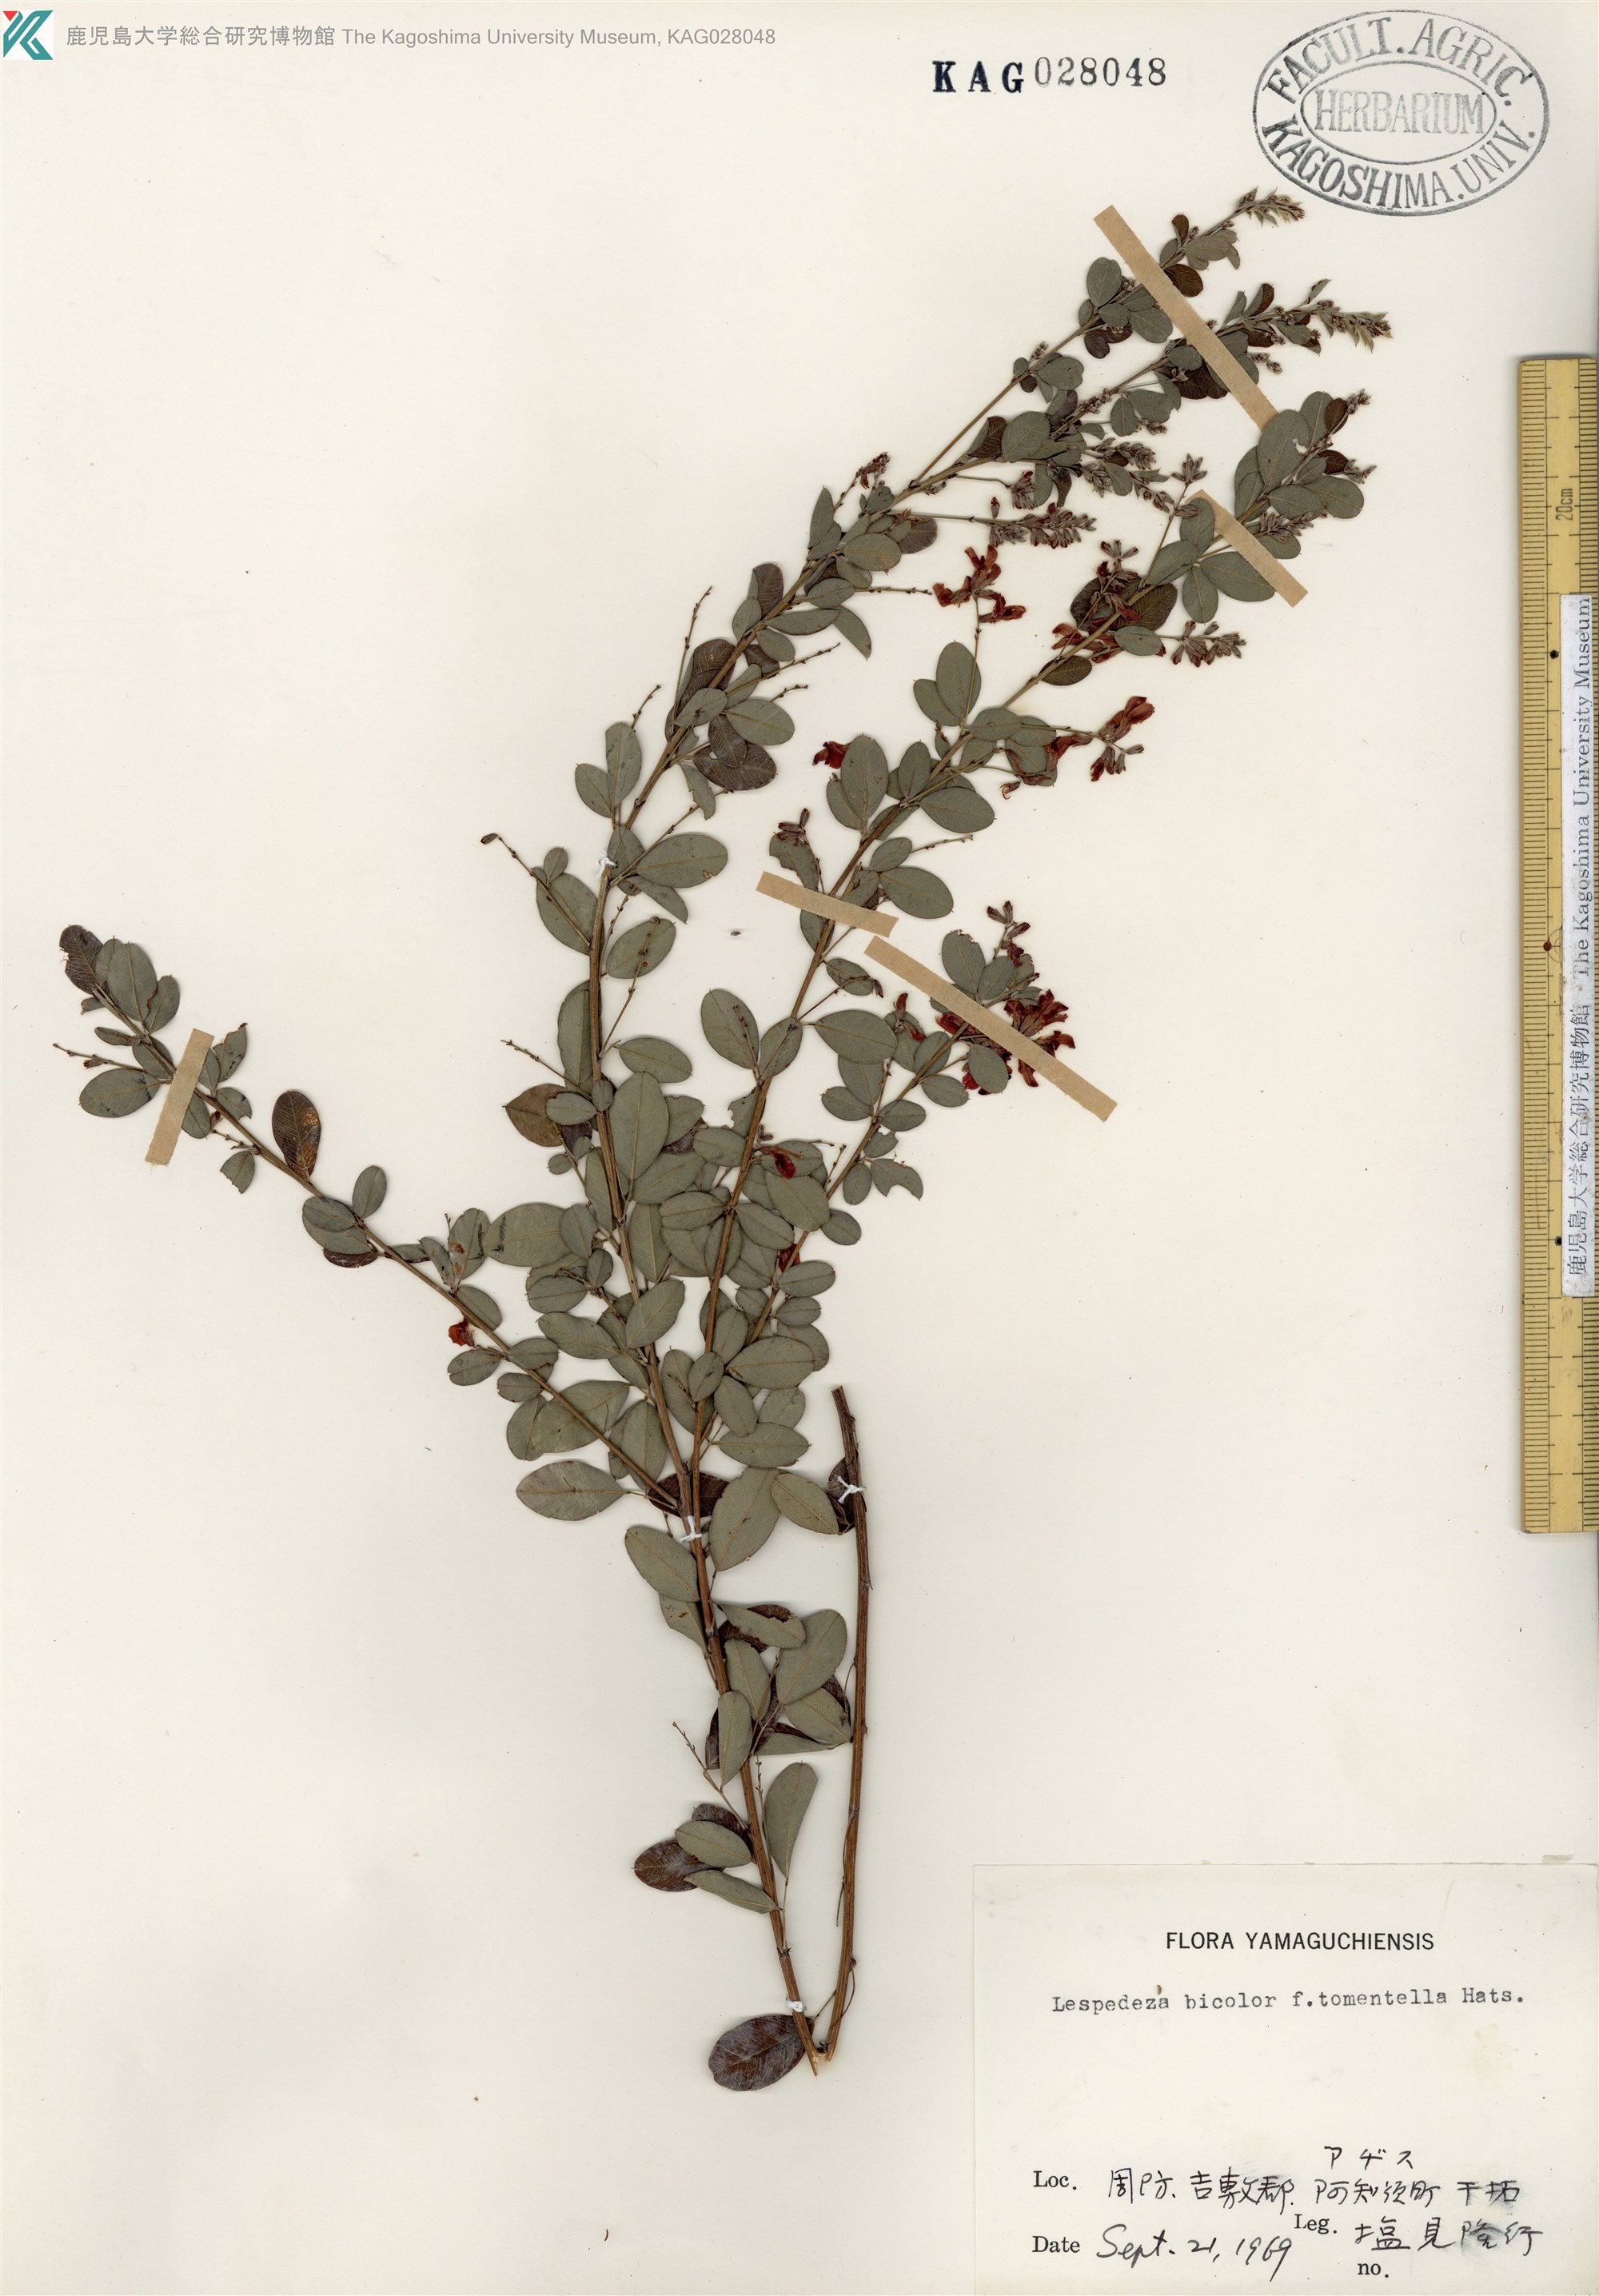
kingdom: Plantae
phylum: Tracheophyta
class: Magnoliopsida
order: Fabales
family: Fabaceae
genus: Lespedeza
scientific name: Lespedeza bicolor
